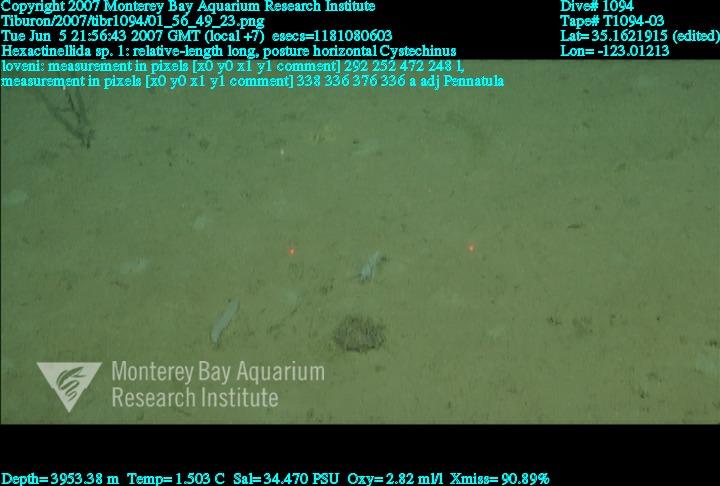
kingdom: Animalia
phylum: Porifera
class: Hexactinellida
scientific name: Hexactinellida
